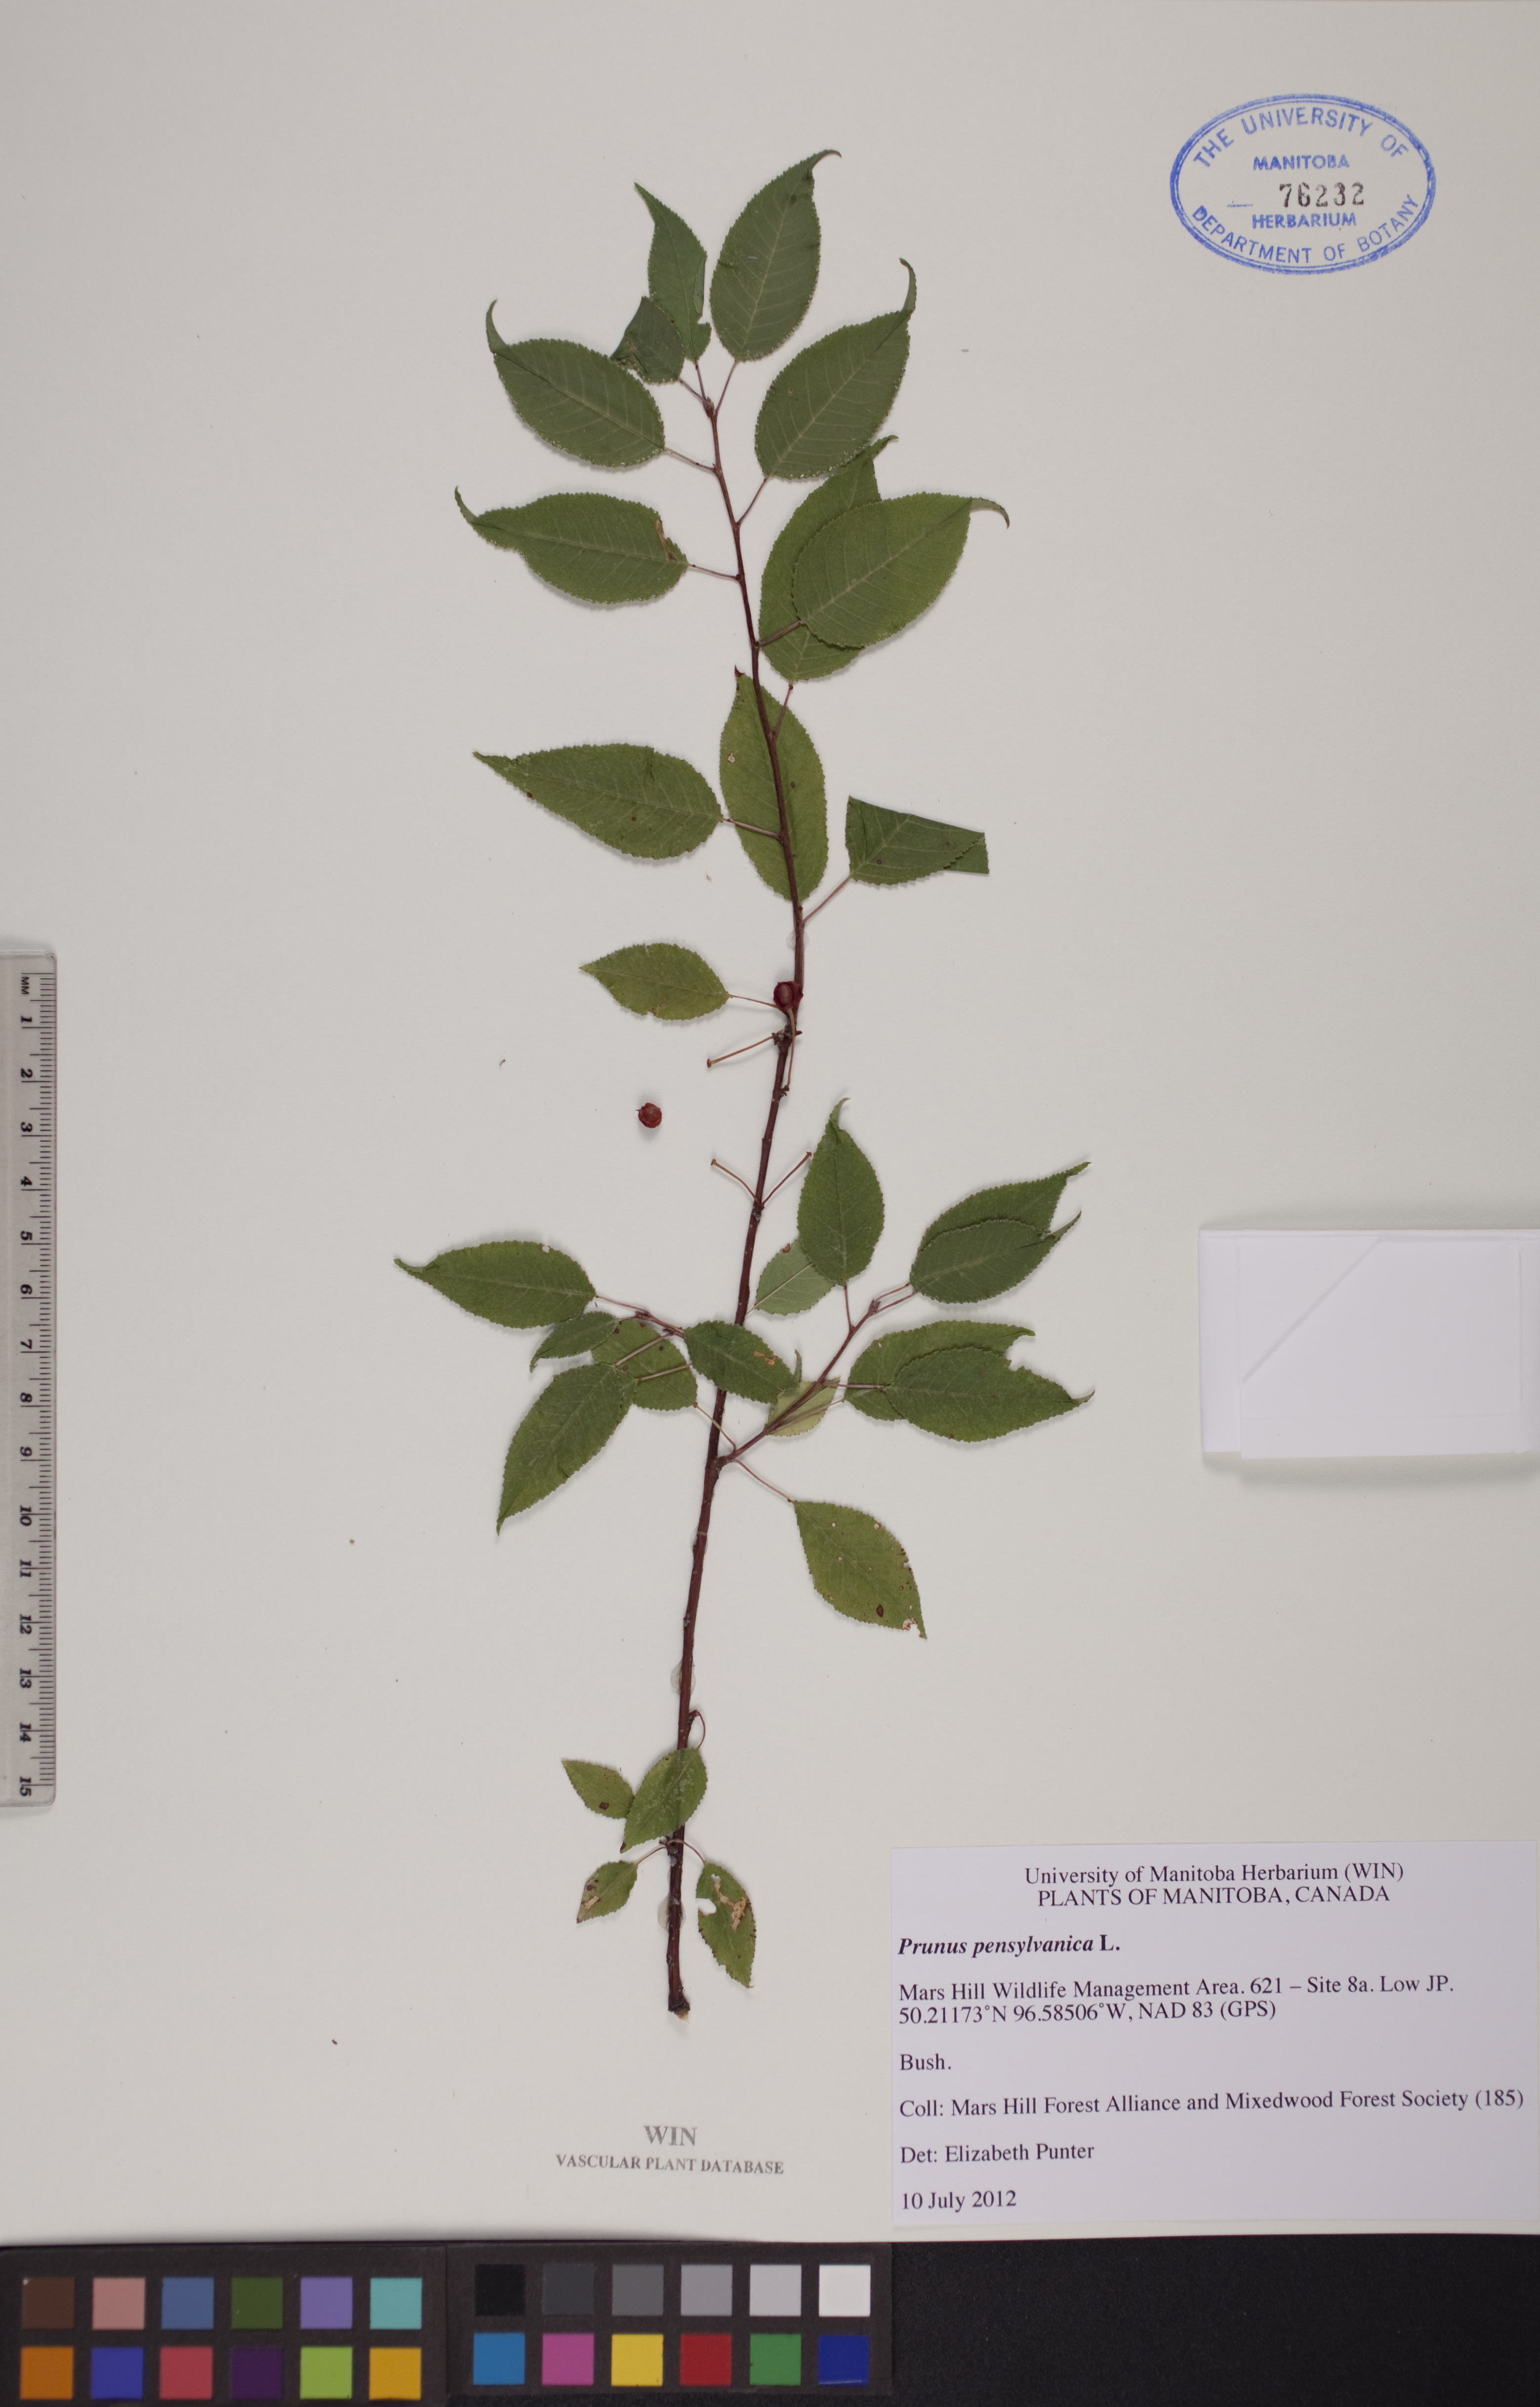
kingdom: Plantae
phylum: Tracheophyta
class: Magnoliopsida
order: Rosales
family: Rosaceae
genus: Prunus
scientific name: Prunus pensylvanica
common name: Pin cherry
